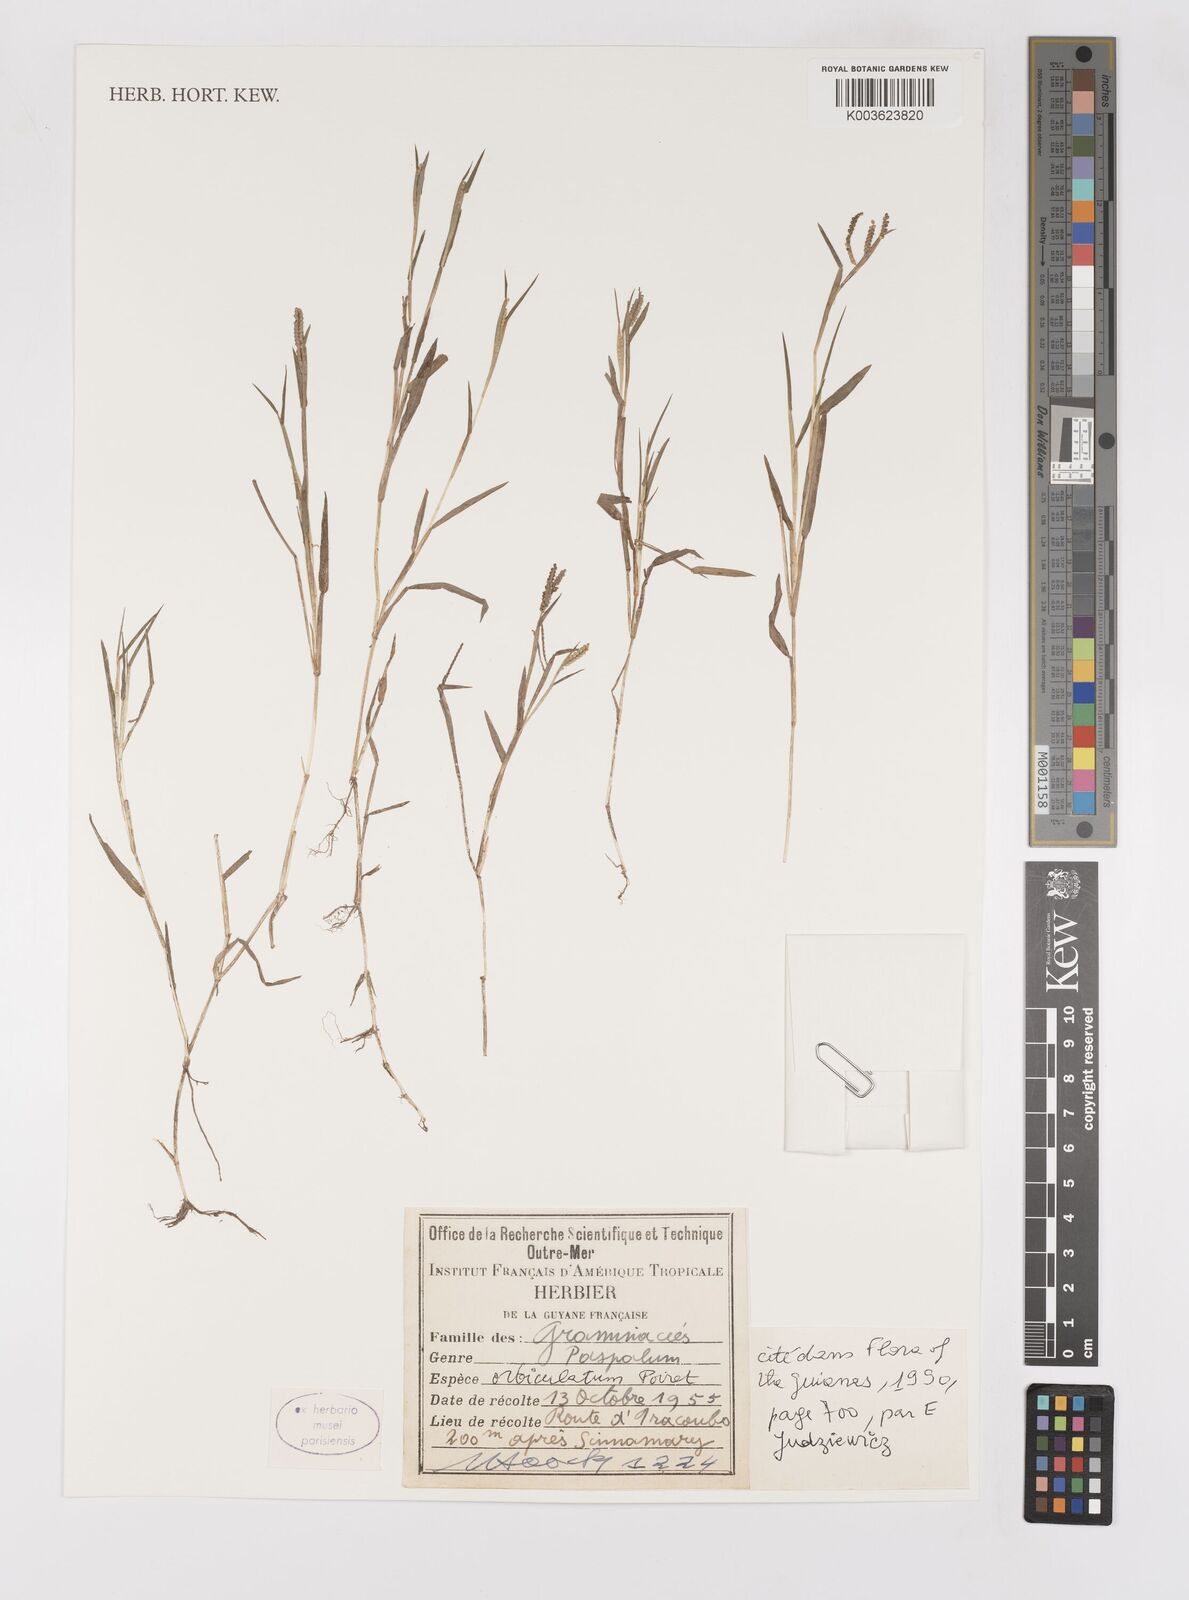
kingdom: Plantae
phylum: Tracheophyta
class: Liliopsida
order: Poales
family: Poaceae
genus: Paspalum
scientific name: Paspalum orbiculatum
